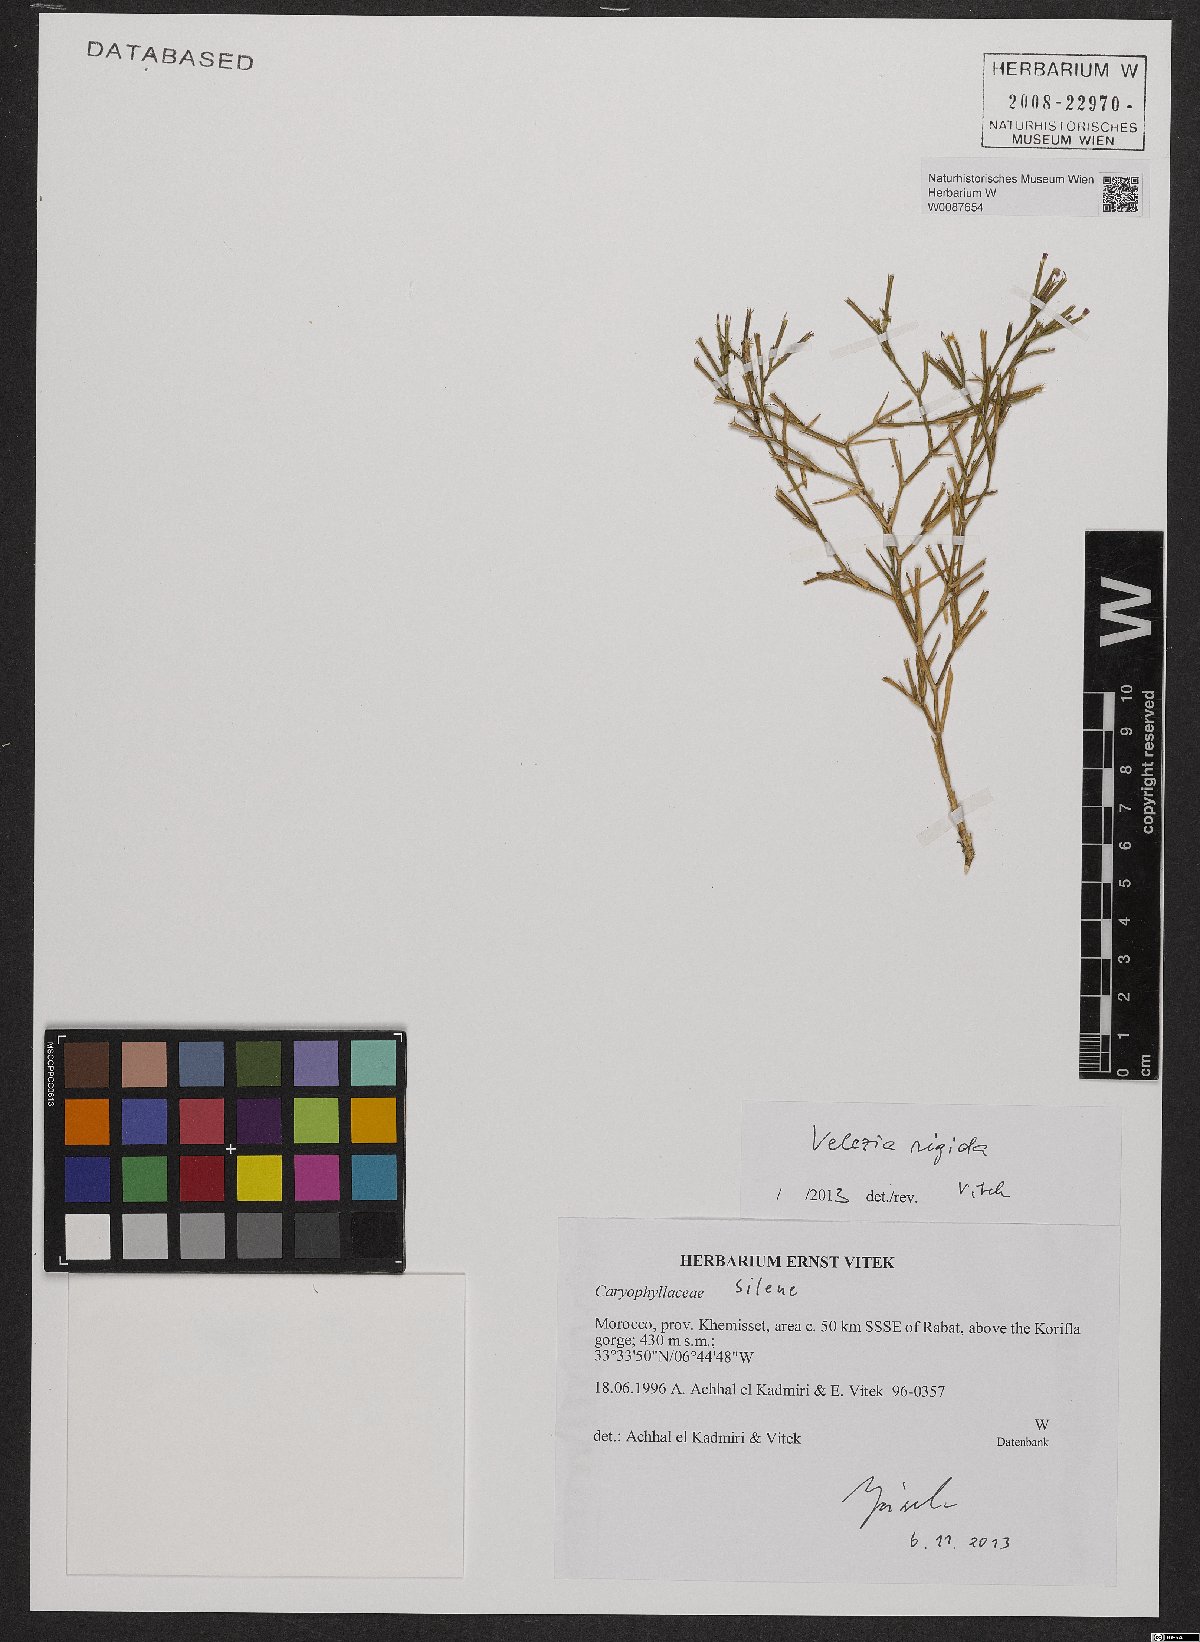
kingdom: Plantae
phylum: Tracheophyta
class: Magnoliopsida
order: Caryophyllales
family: Caryophyllaceae
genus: Dianthus
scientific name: Dianthus nudiflorus
